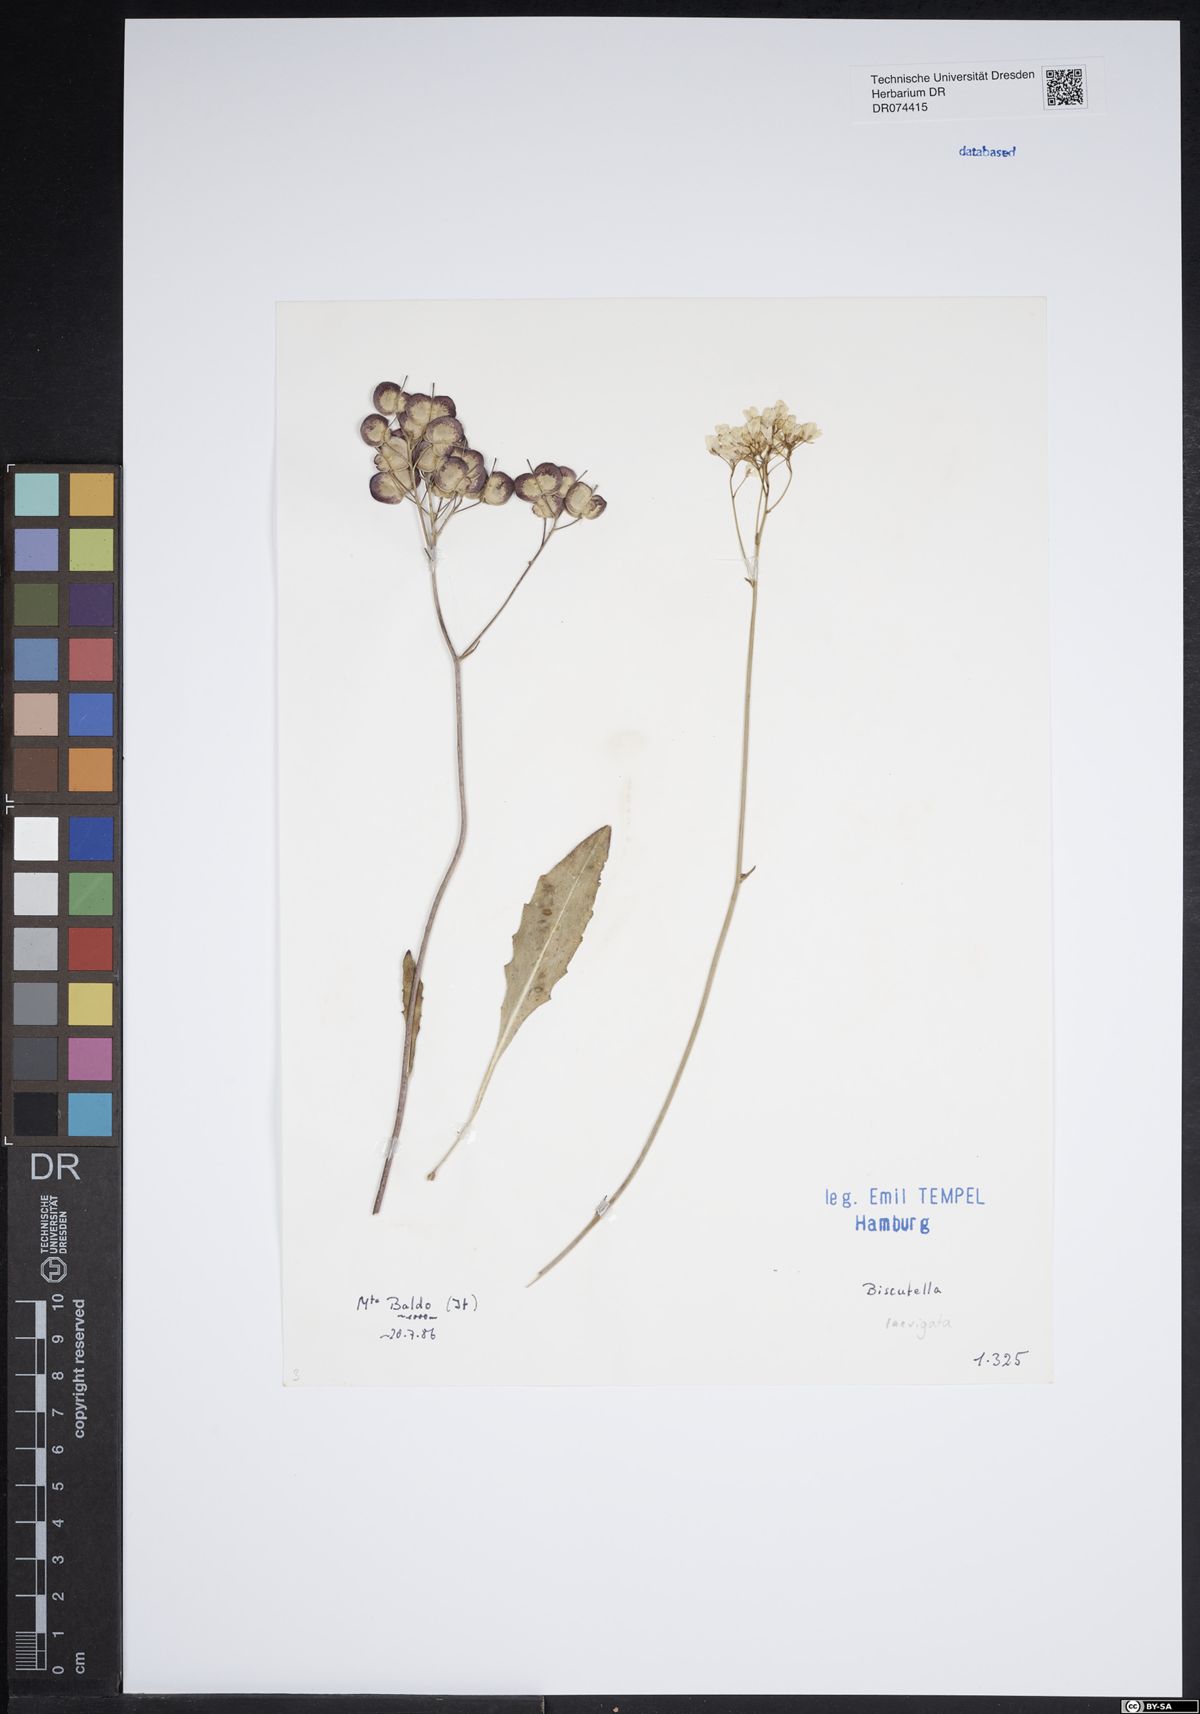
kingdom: Plantae
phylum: Tracheophyta
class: Magnoliopsida
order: Brassicales
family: Brassicaceae
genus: Biscutella
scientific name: Biscutella laevigata
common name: Buckler mustard
